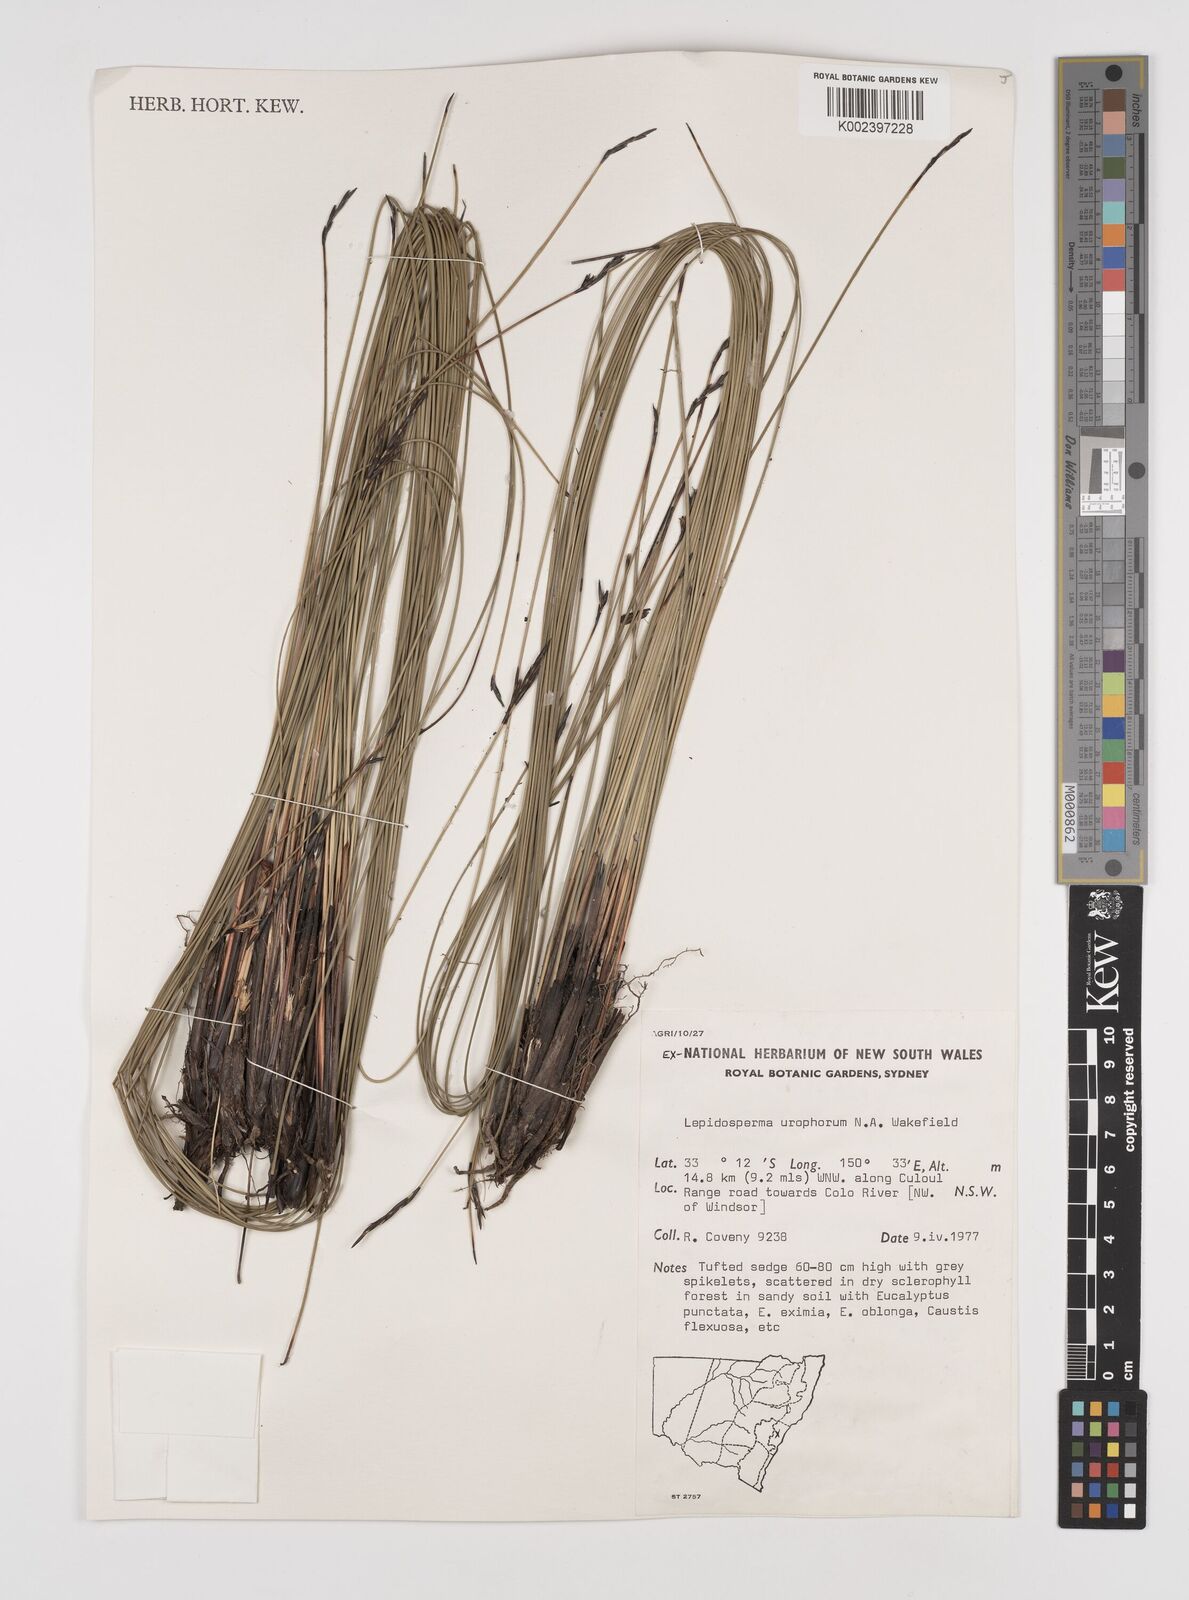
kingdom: Plantae
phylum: Tracheophyta
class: Liliopsida
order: Poales
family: Cyperaceae
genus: Lepidosperma
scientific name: Lepidosperma urophorum
